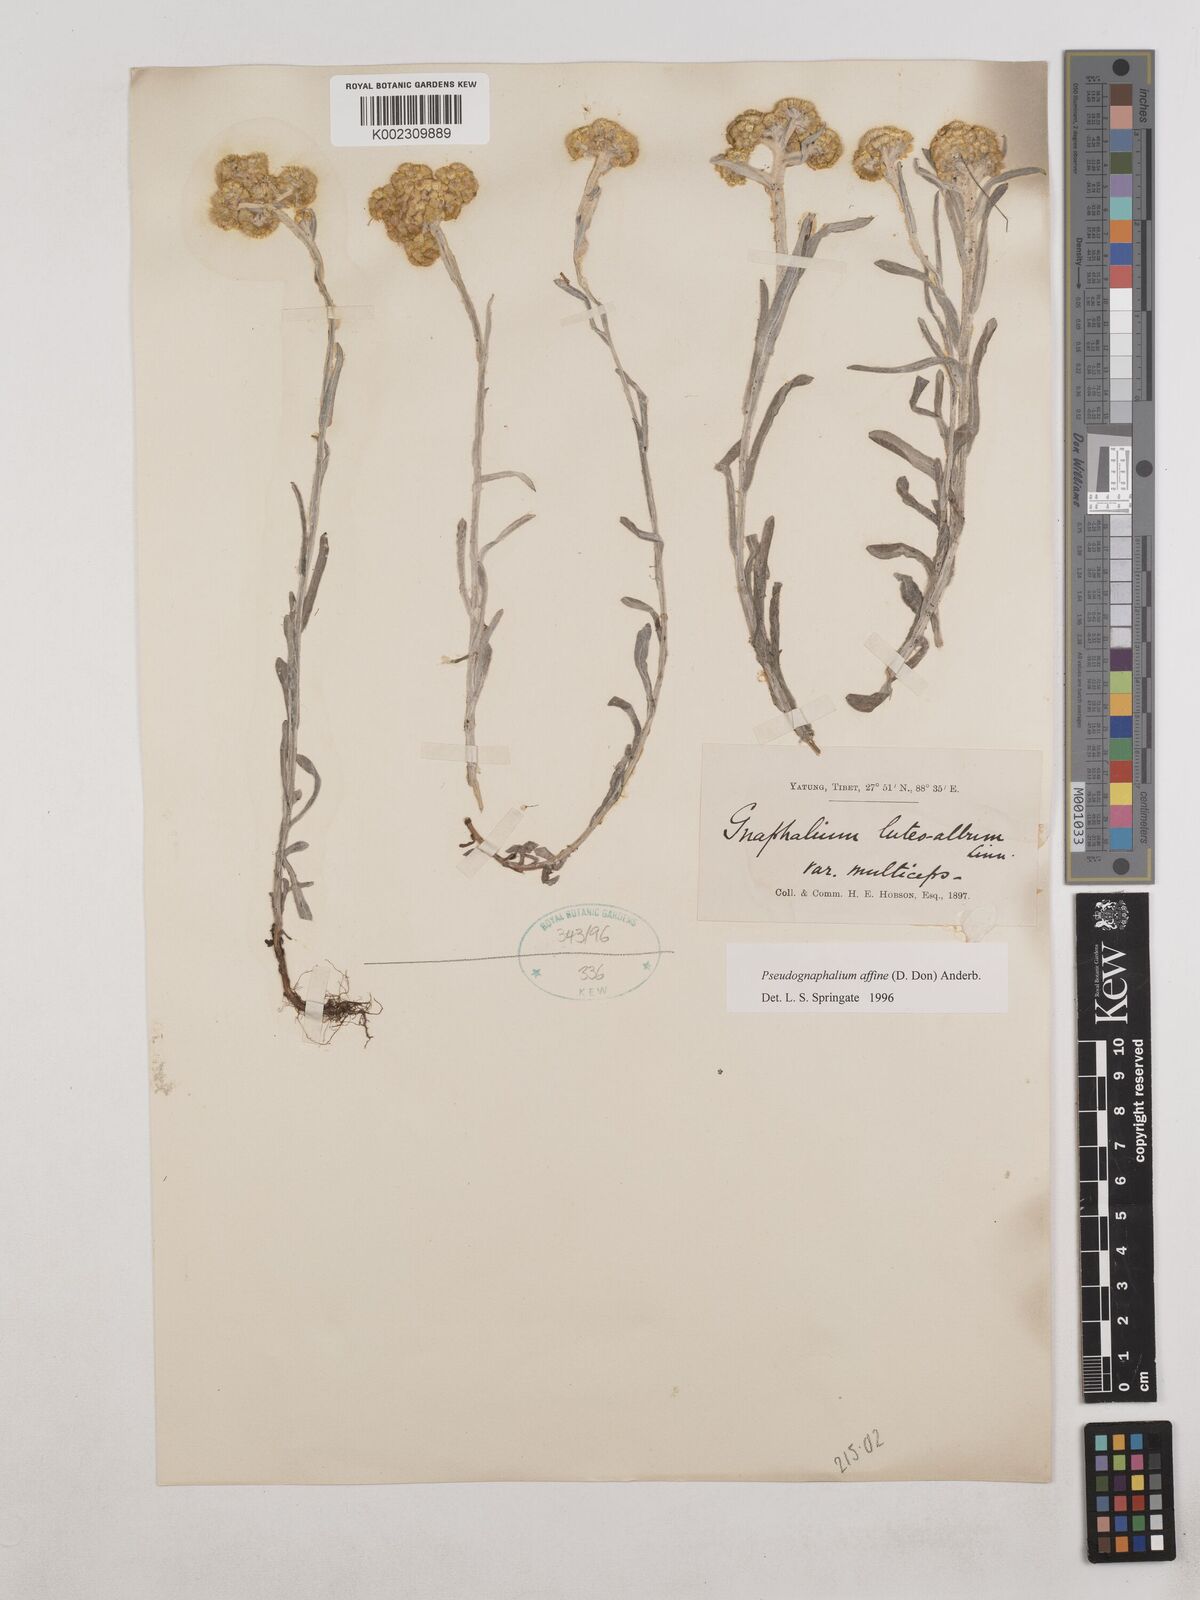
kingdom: Plantae
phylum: Tracheophyta
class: Magnoliopsida
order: Asterales
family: Asteraceae
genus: Pseudognaphalium
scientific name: Pseudognaphalium affine
